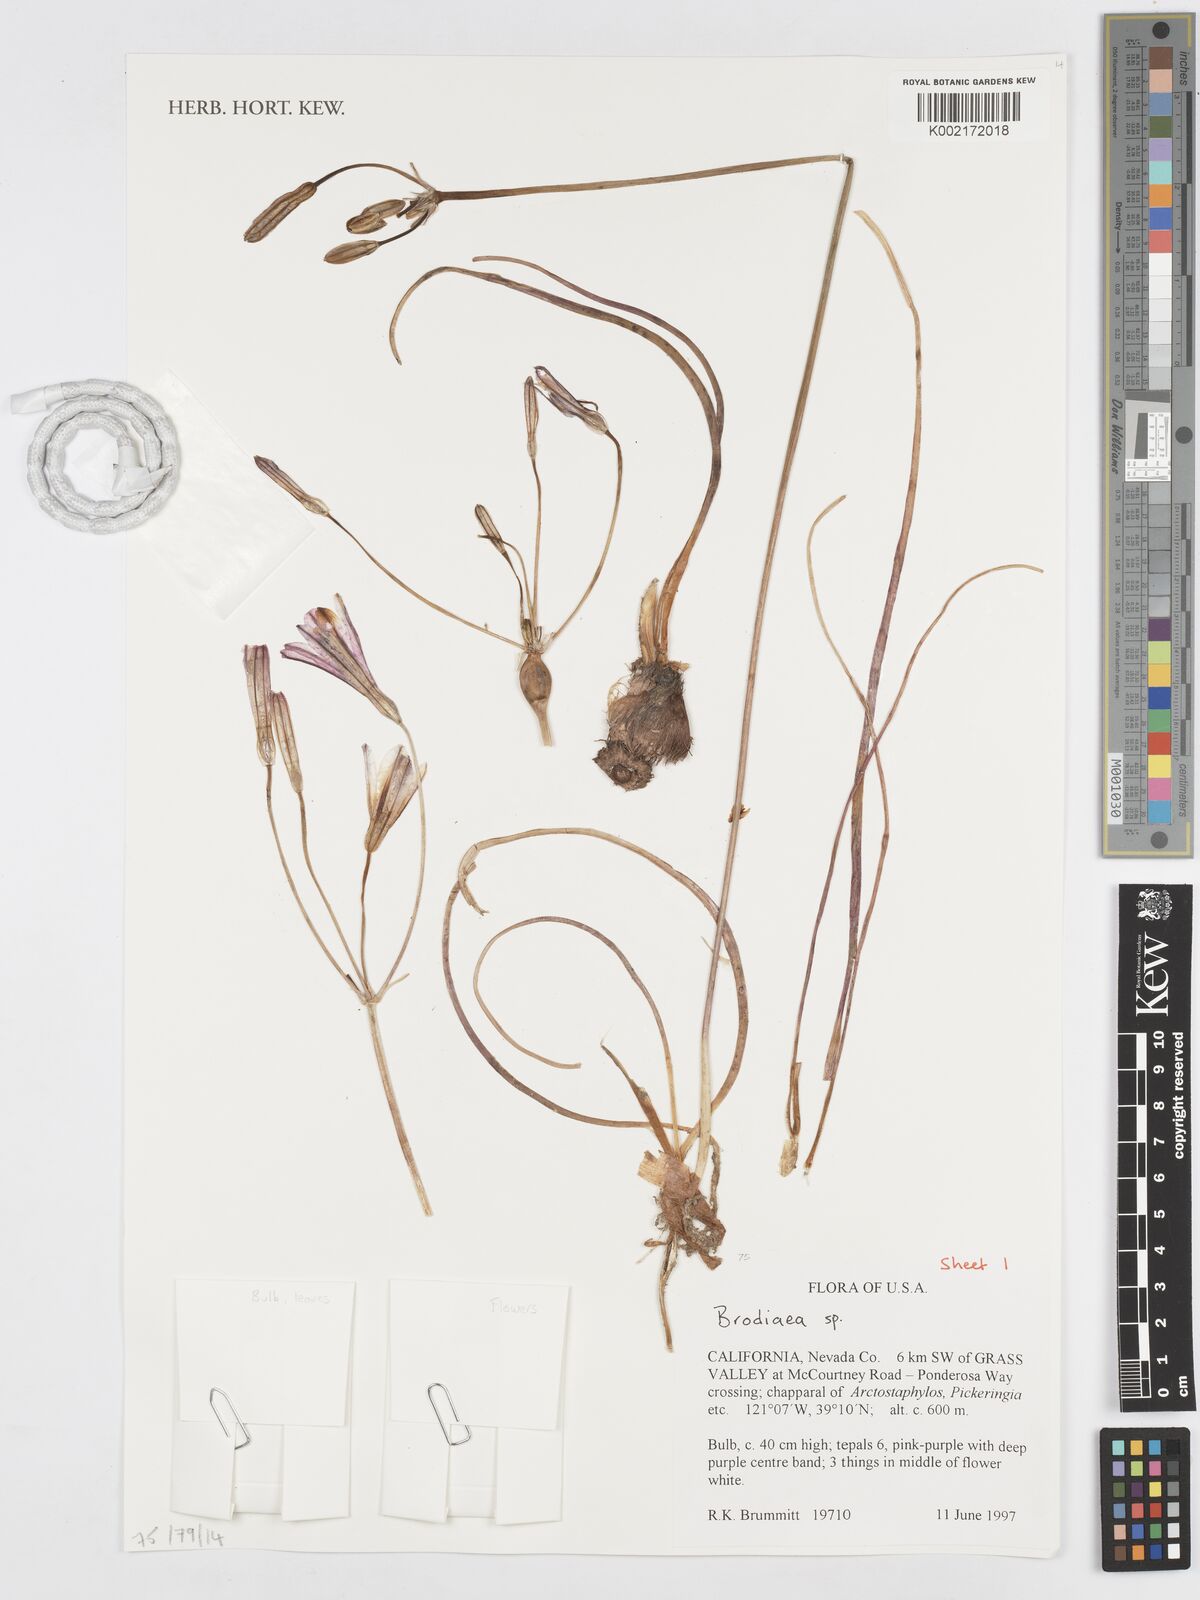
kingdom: Plantae
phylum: Tracheophyta
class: Liliopsida
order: Asparagales
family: Asparagaceae
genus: Brodiaea
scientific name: Brodiaea
